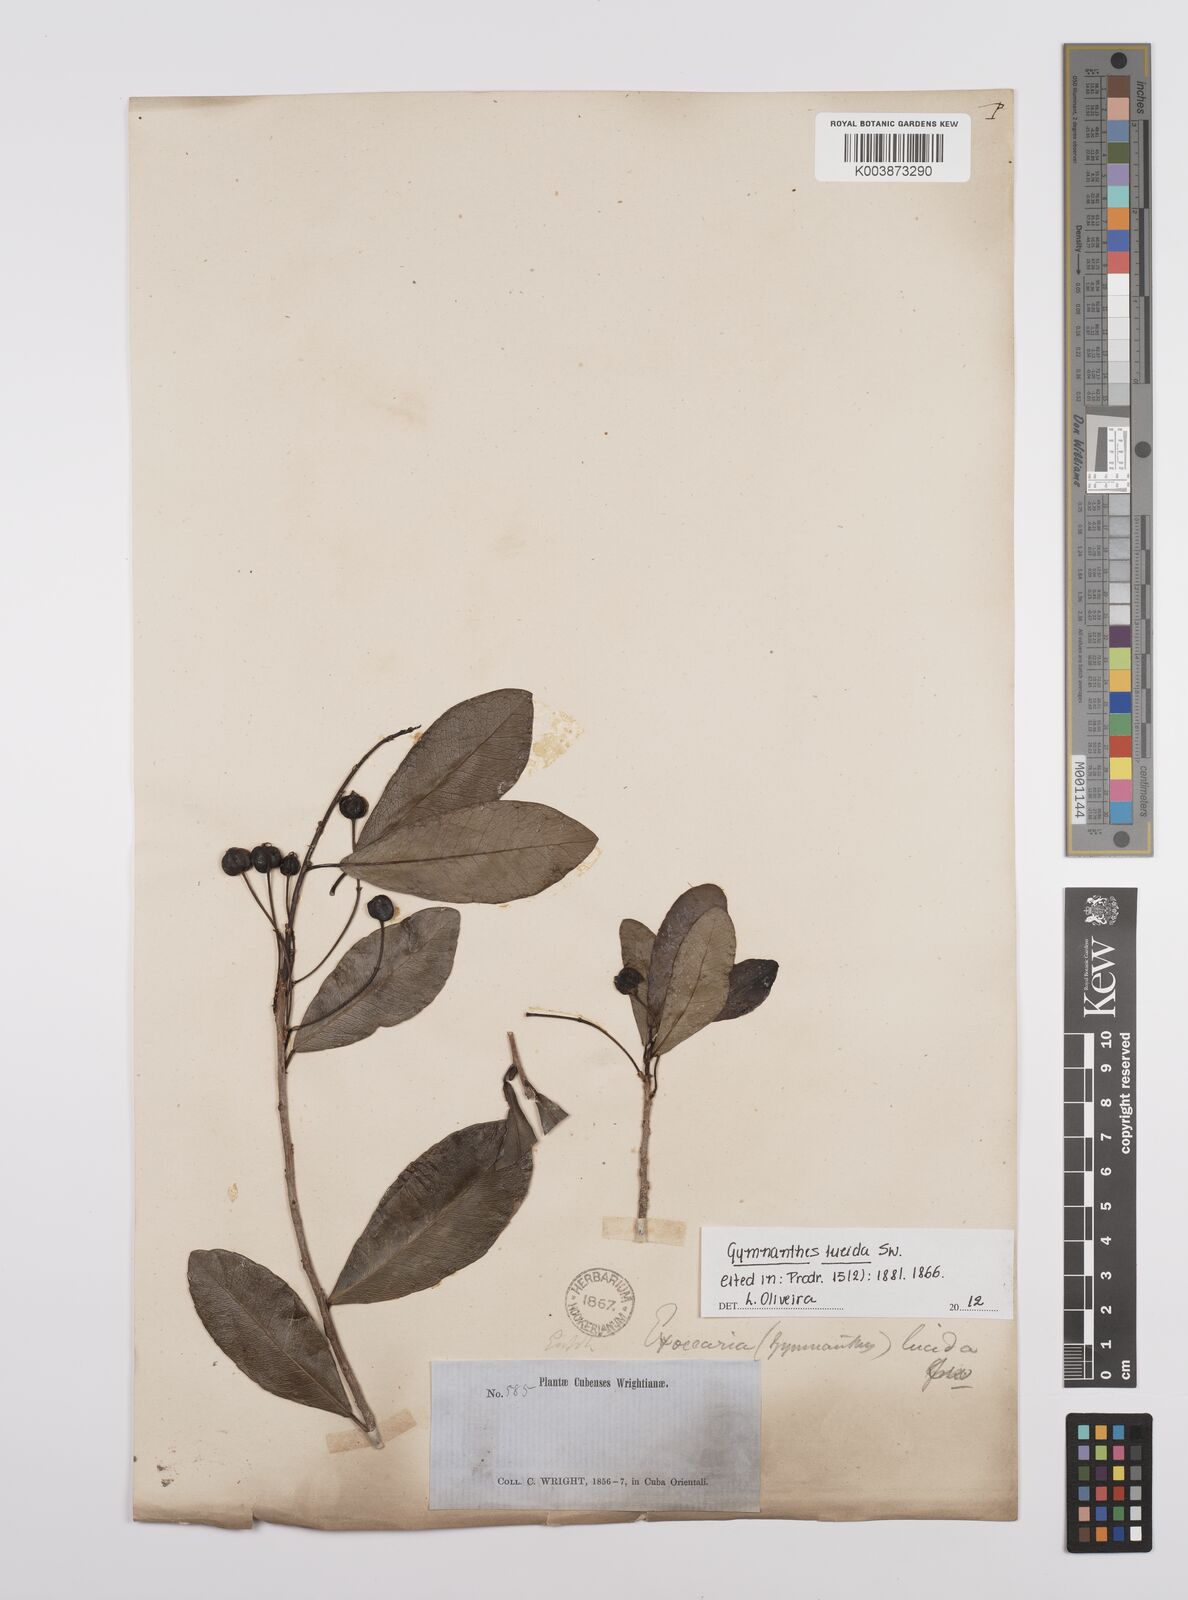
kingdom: Plantae
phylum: Tracheophyta
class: Magnoliopsida
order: Malpighiales
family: Euphorbiaceae
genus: Gymnanthes
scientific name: Gymnanthes lucida
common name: Oysterwood
